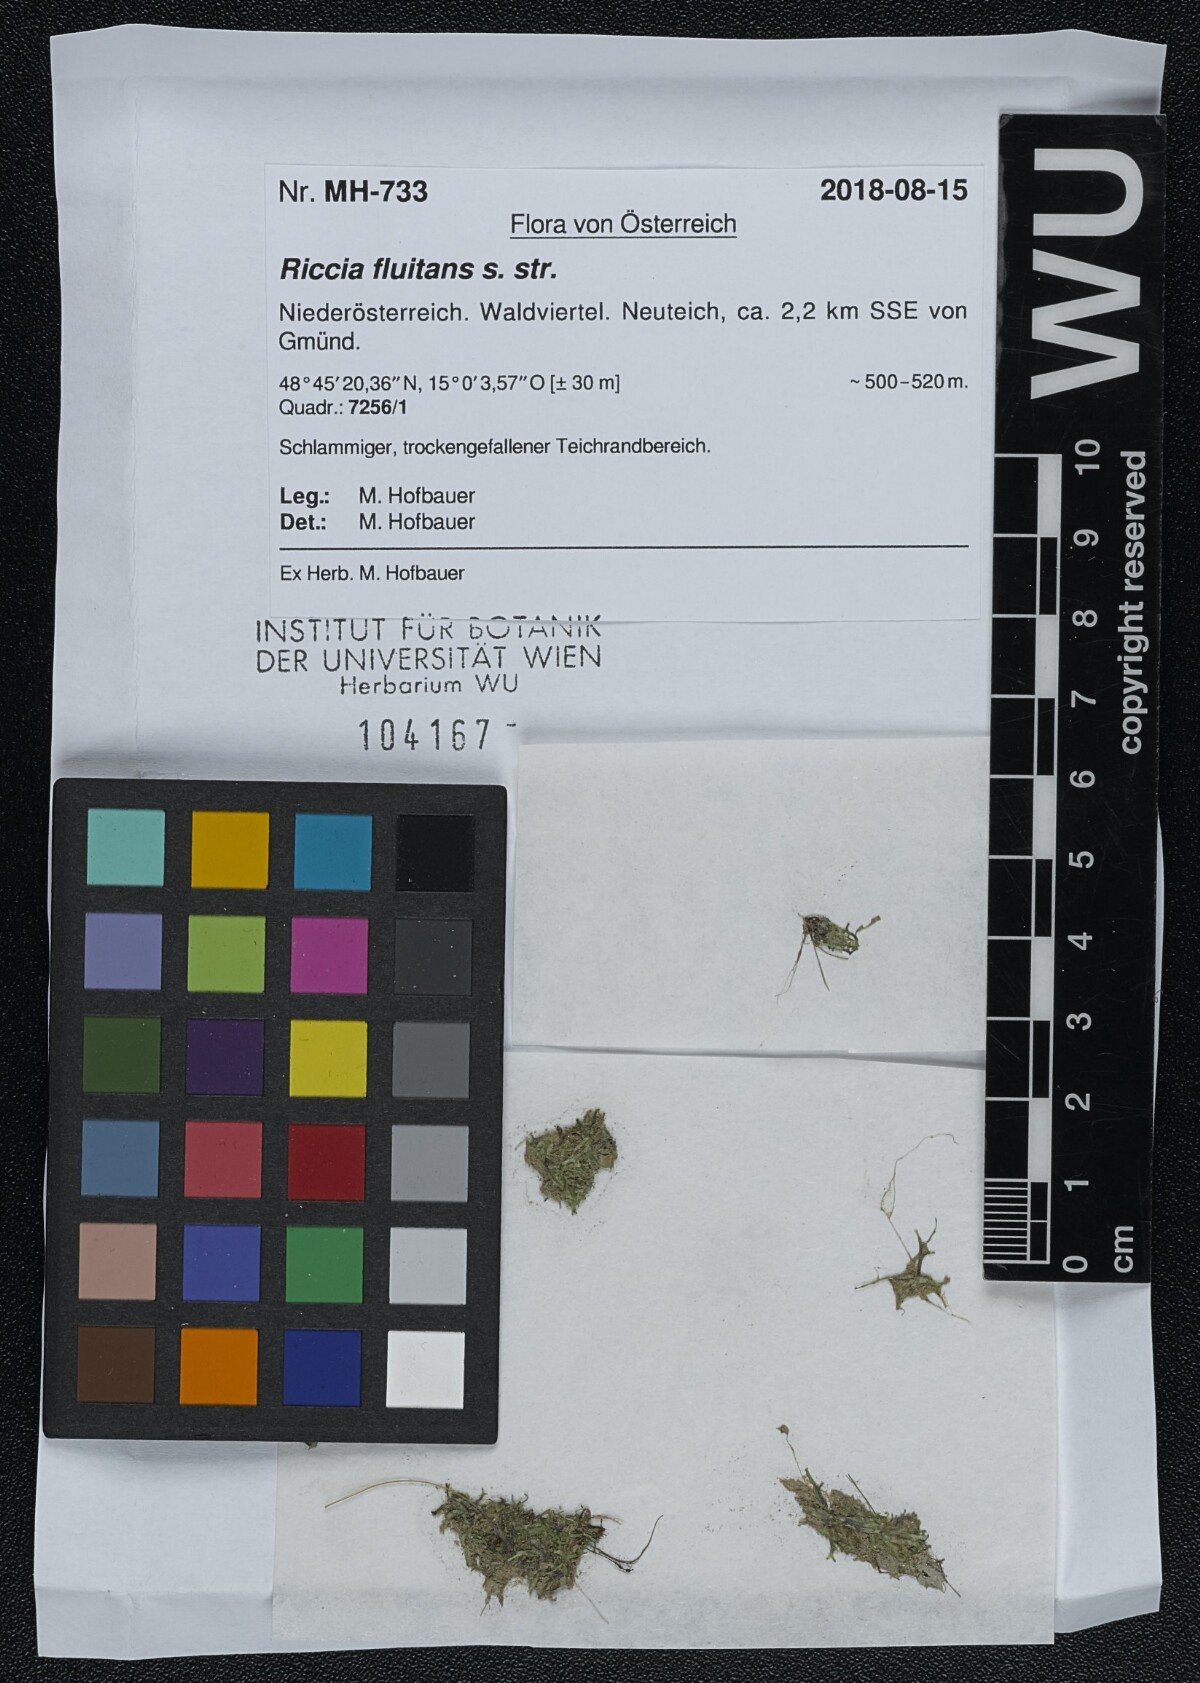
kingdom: Plantae
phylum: Marchantiophyta
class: Marchantiopsida
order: Marchantiales
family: Ricciaceae
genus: Riccia
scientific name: Riccia fluitans
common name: Floating crystalwort
